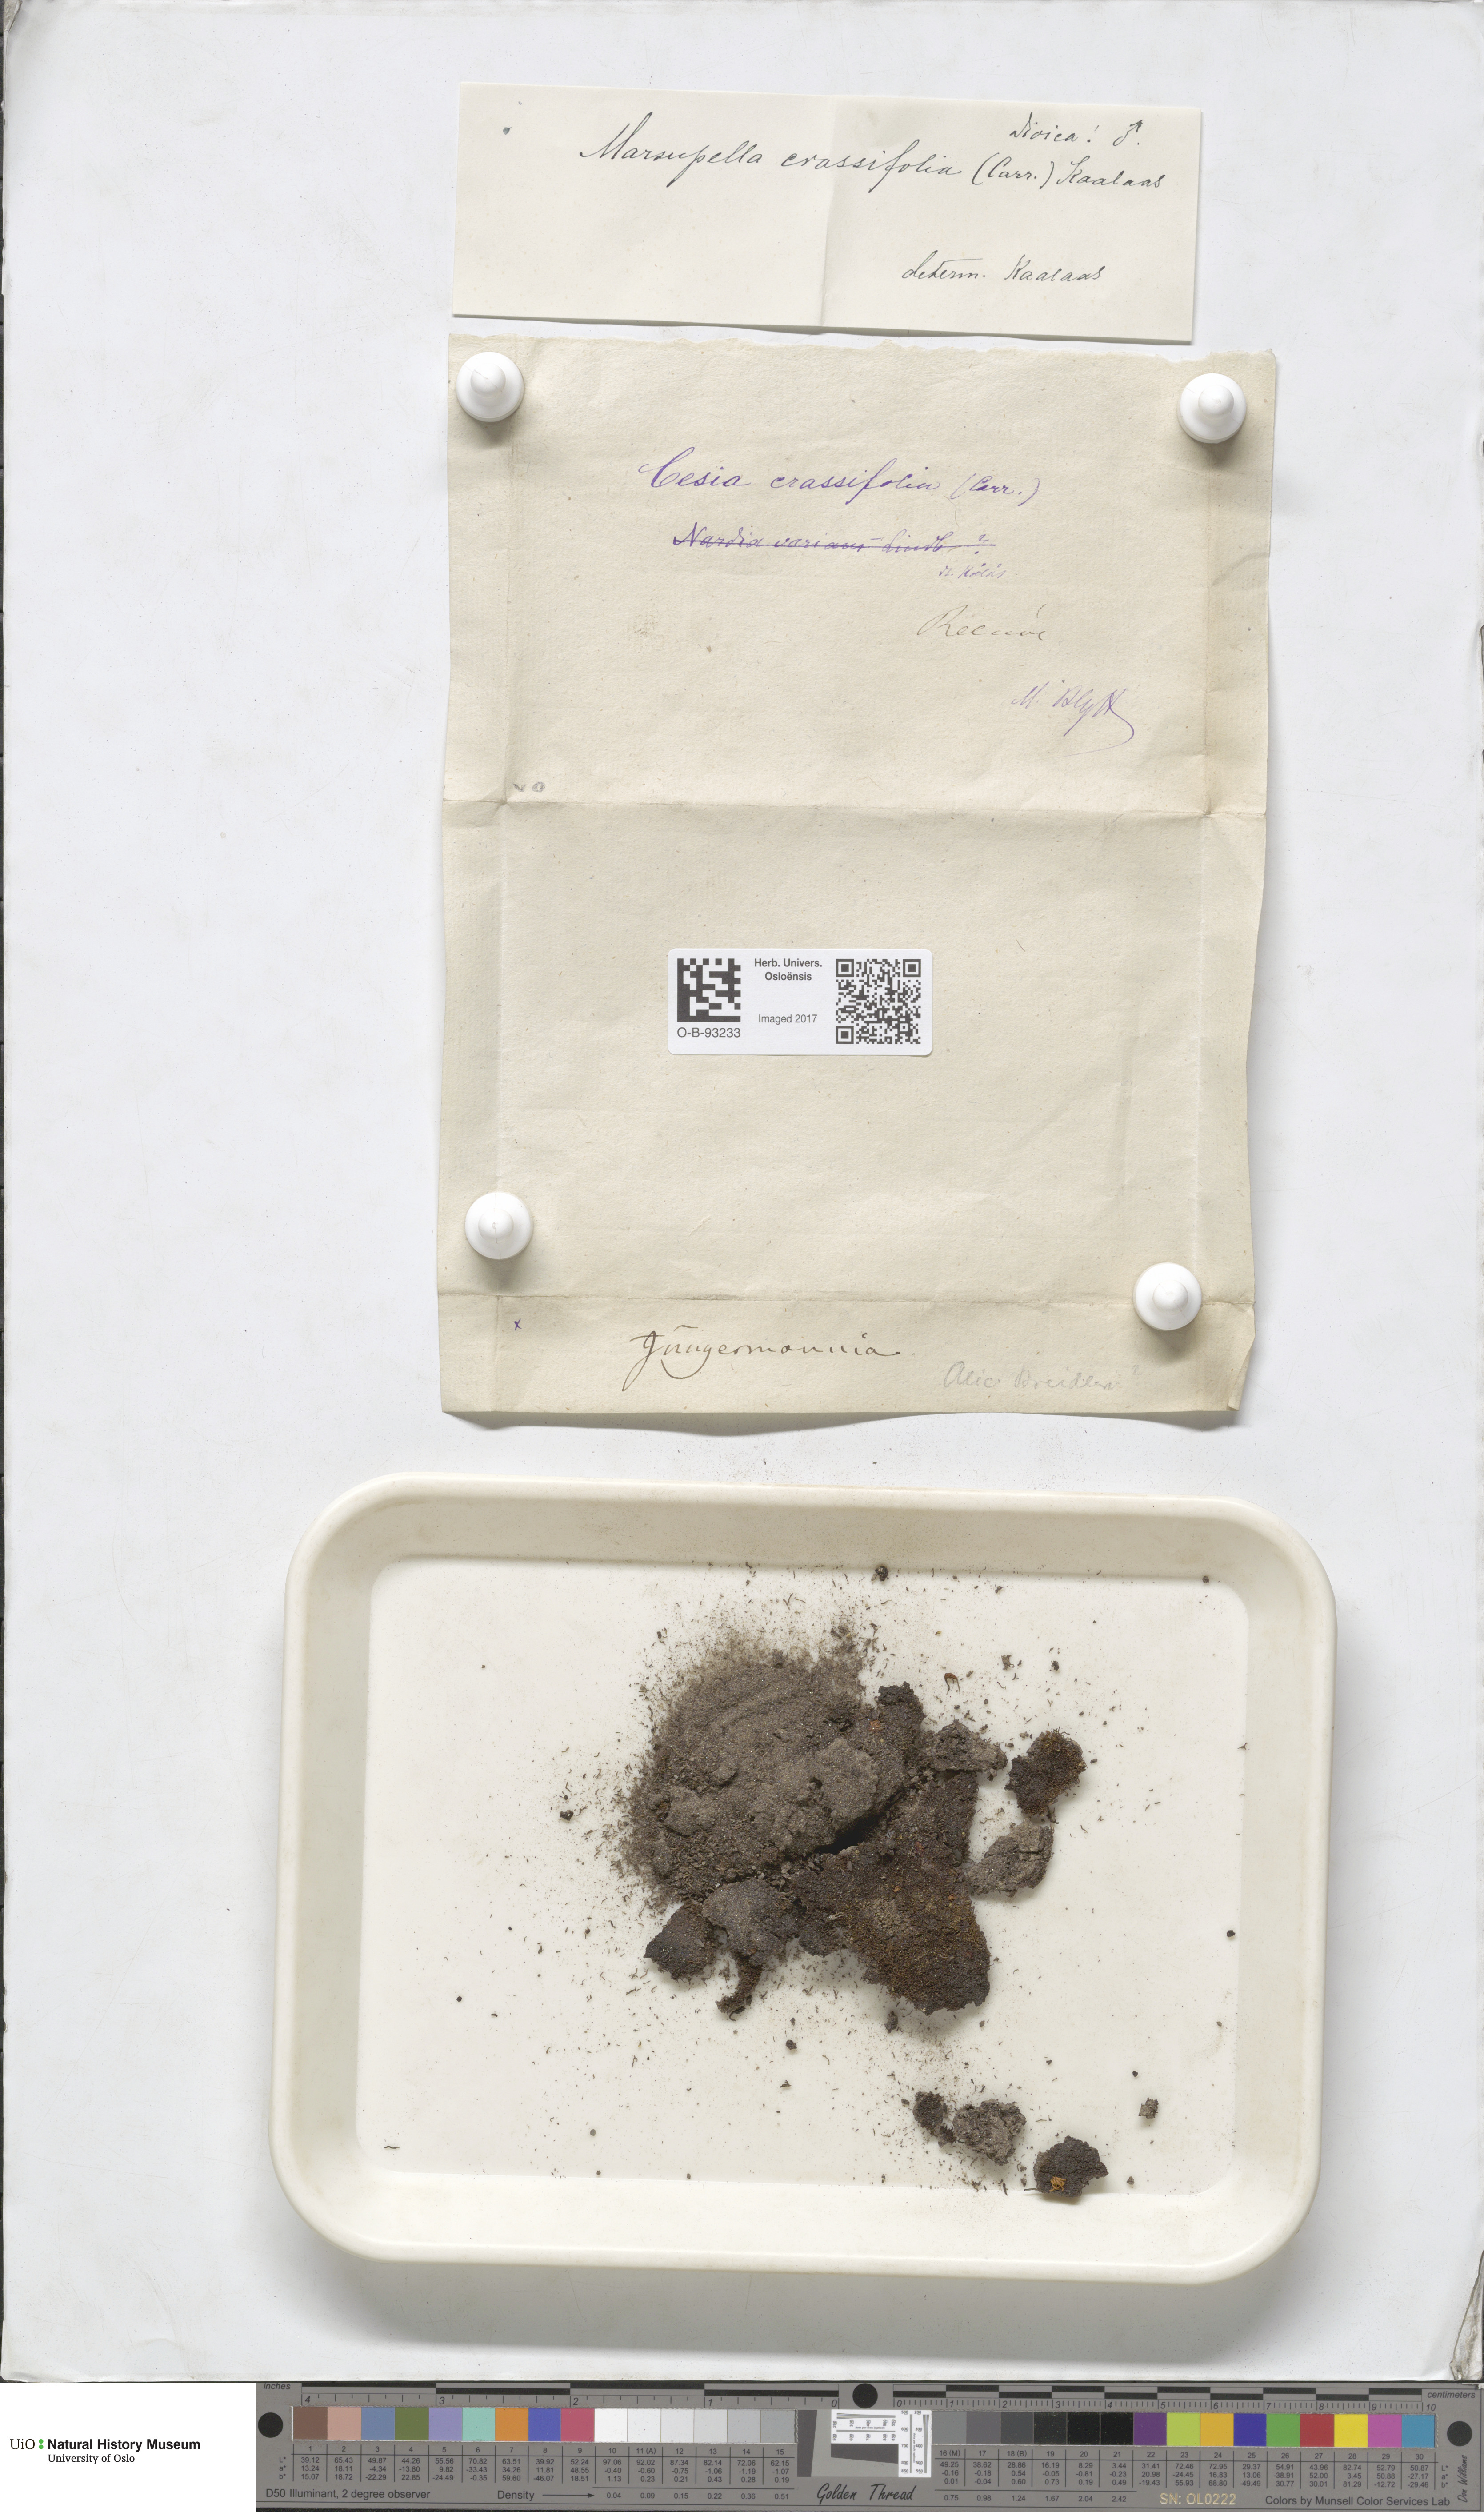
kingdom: Plantae
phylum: Marchantiophyta
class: Jungermanniopsida
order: Jungermanniales
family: Gymnomitriaceae
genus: Gymnomitrion
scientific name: Gymnomitrion brevissimum
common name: Snow rustwort
